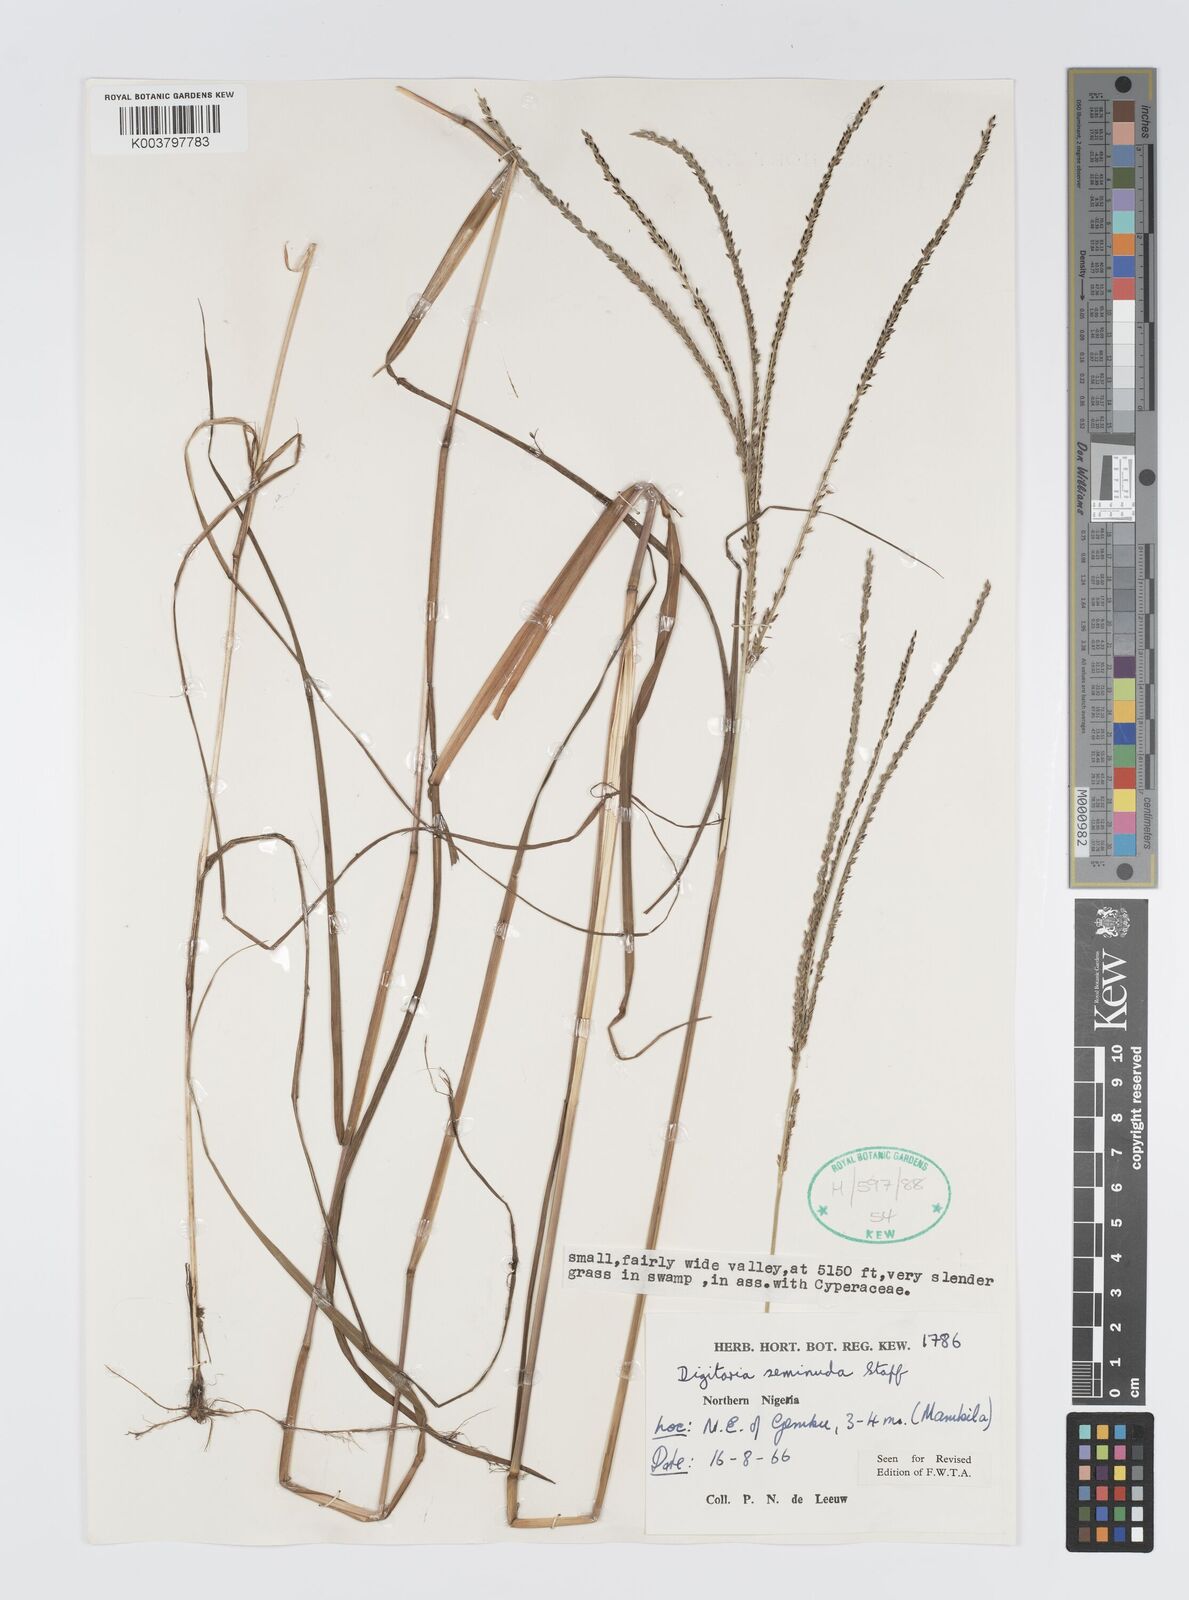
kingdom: Plantae
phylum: Tracheophyta
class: Liliopsida
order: Poales
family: Poaceae
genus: Digitaria
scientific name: Digitaria atrofusca
